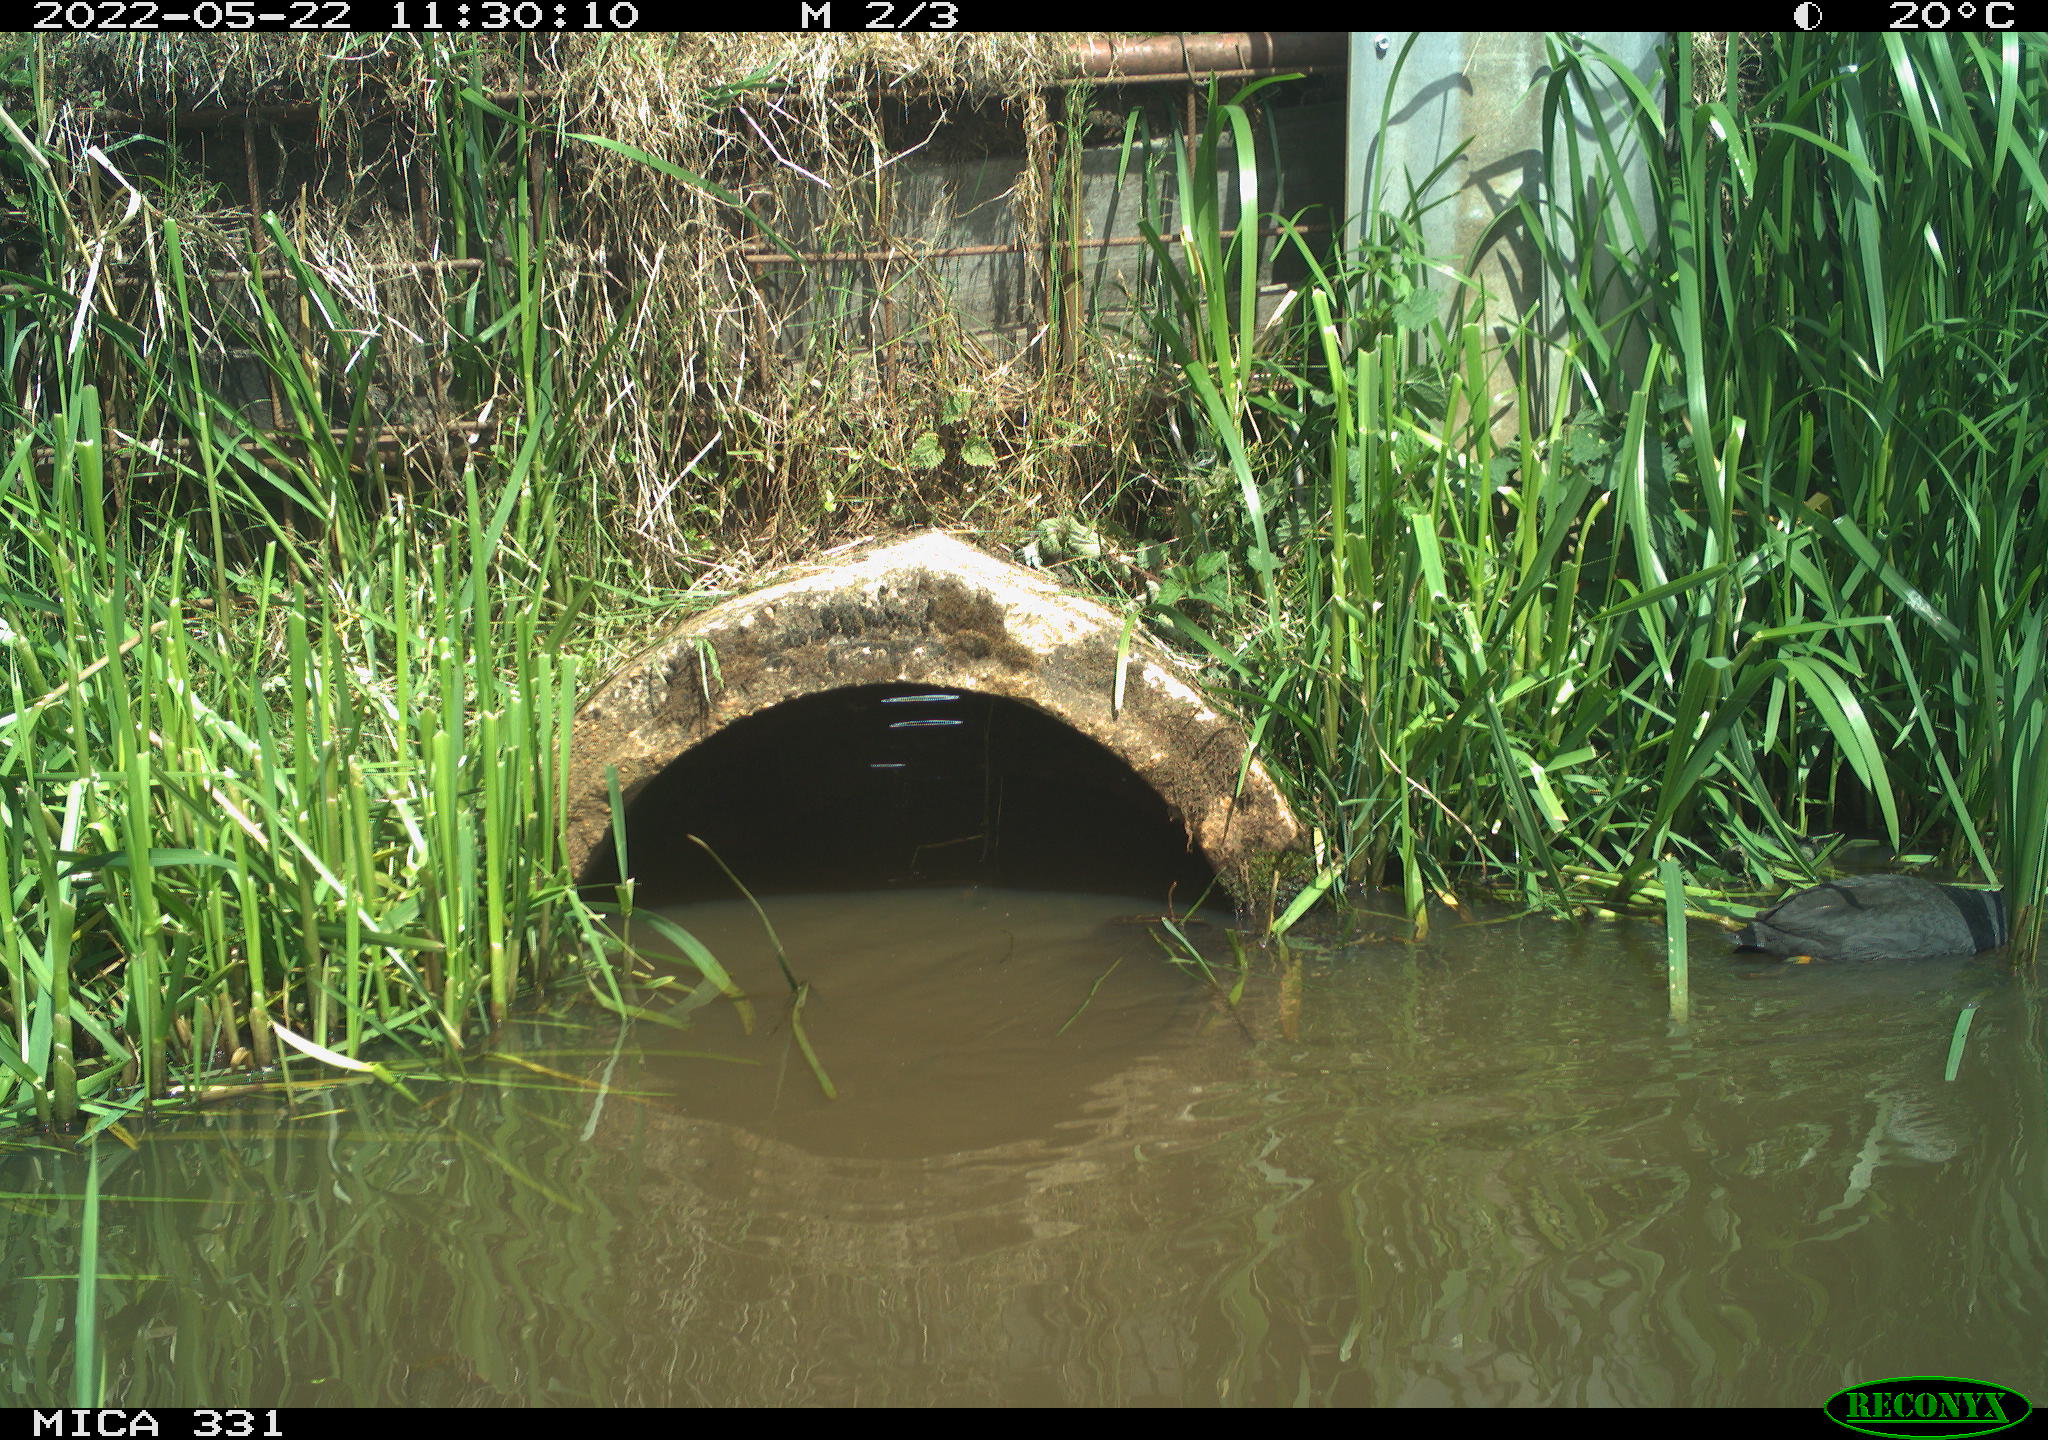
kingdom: Animalia
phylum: Chordata
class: Aves
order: Gruiformes
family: Rallidae
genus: Fulica
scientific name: Fulica atra
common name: Eurasian coot
